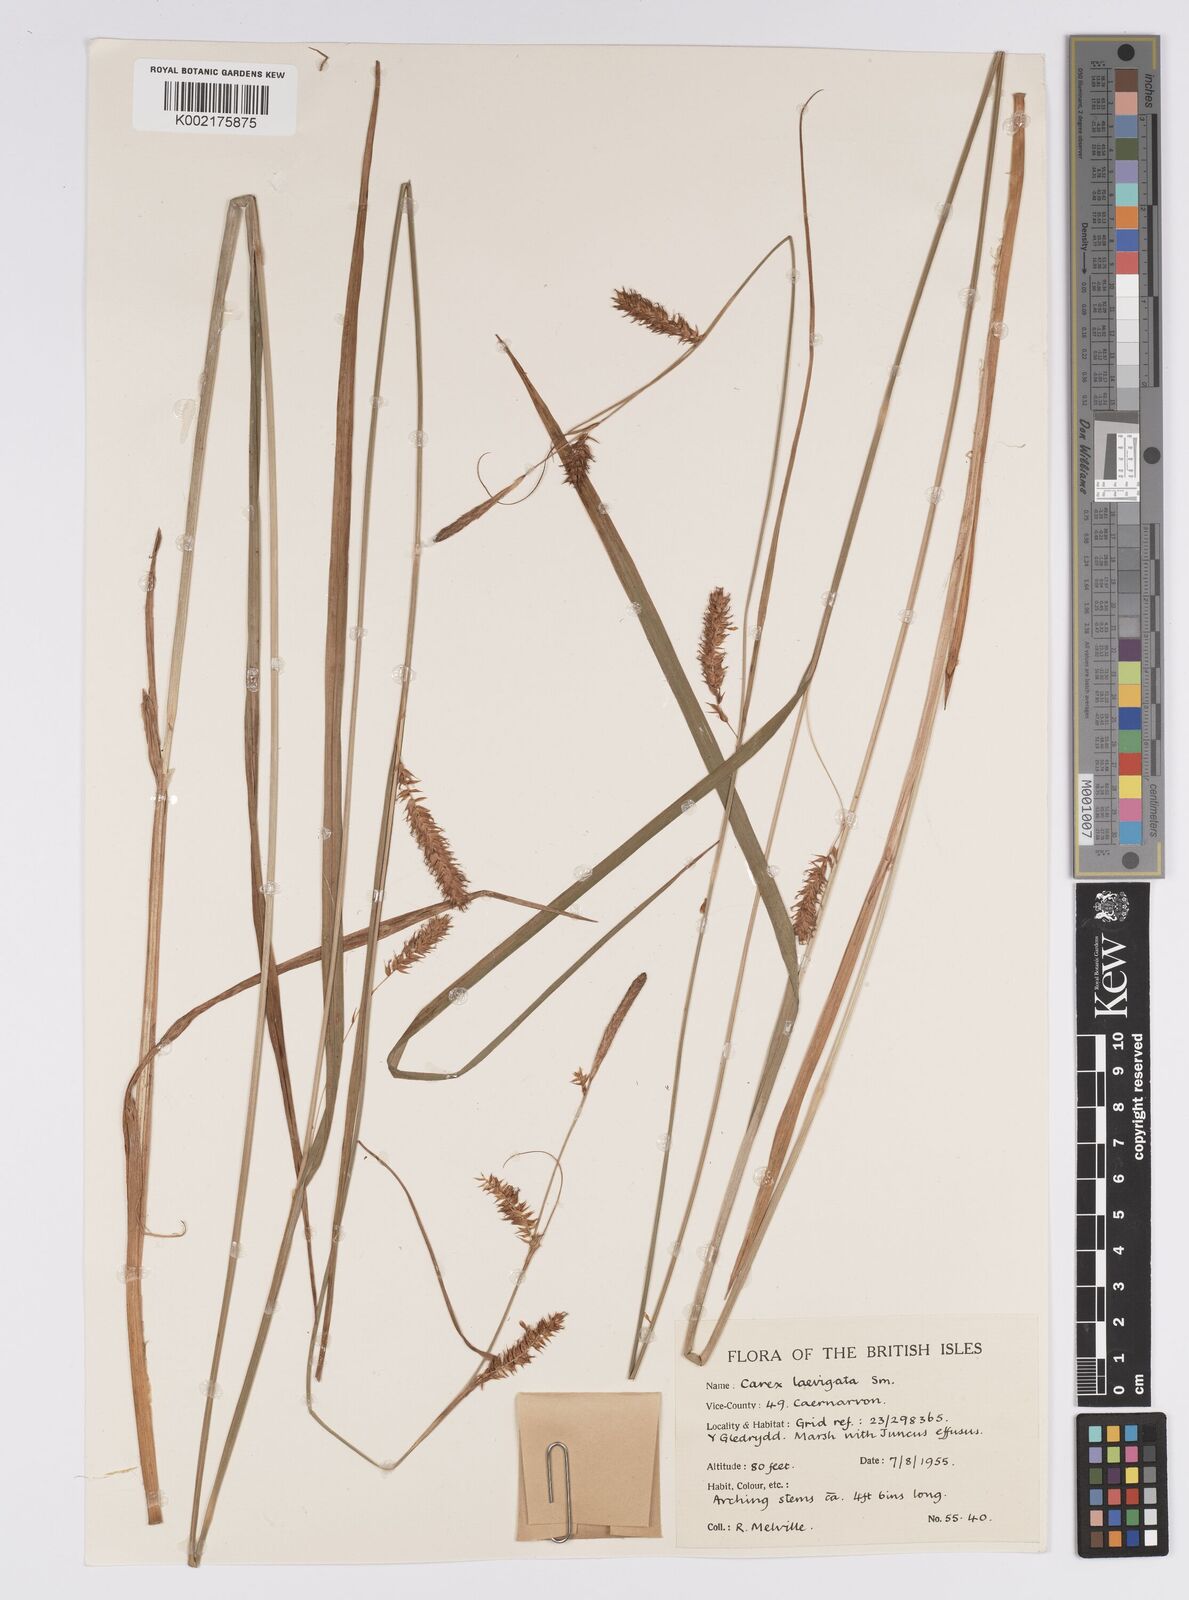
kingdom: Plantae
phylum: Tracheophyta
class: Liliopsida
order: Poales
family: Cyperaceae
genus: Carex
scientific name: Carex laevigata
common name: Smooth-stalked sedge
